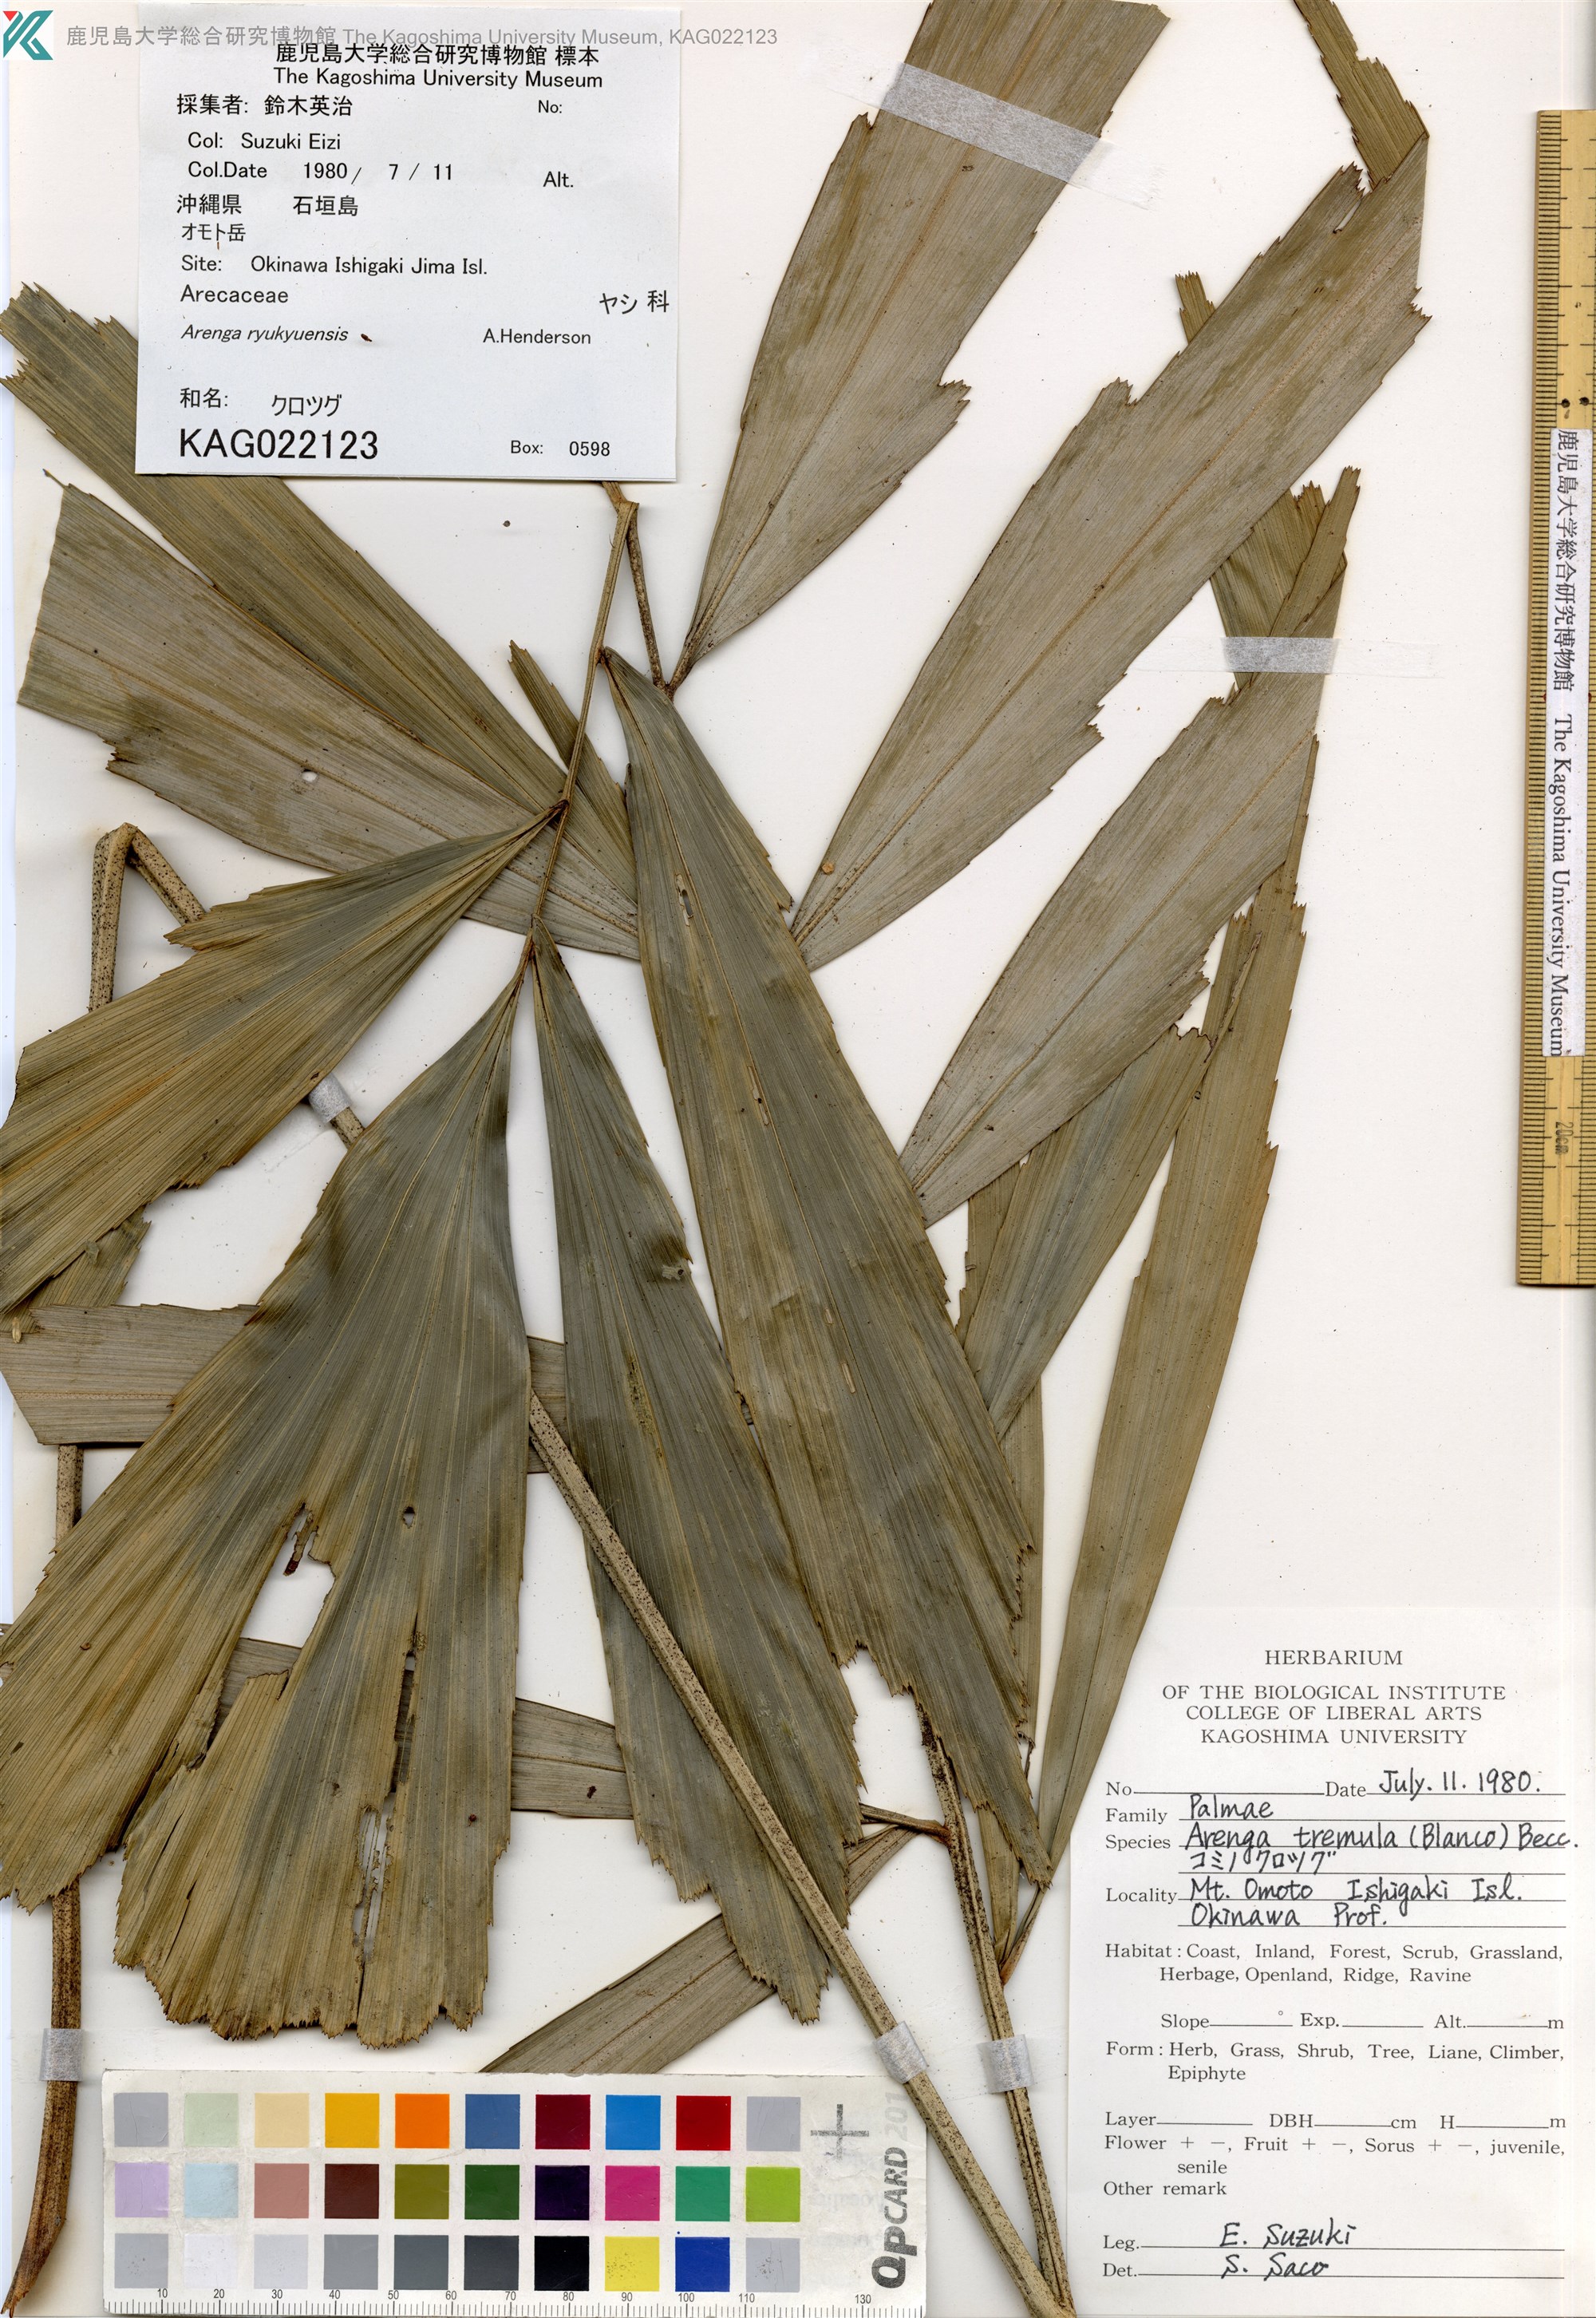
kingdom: Plantae
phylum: Tracheophyta
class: Liliopsida
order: Arecales
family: Arecaceae
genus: Arenga
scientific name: Arenga engleri
